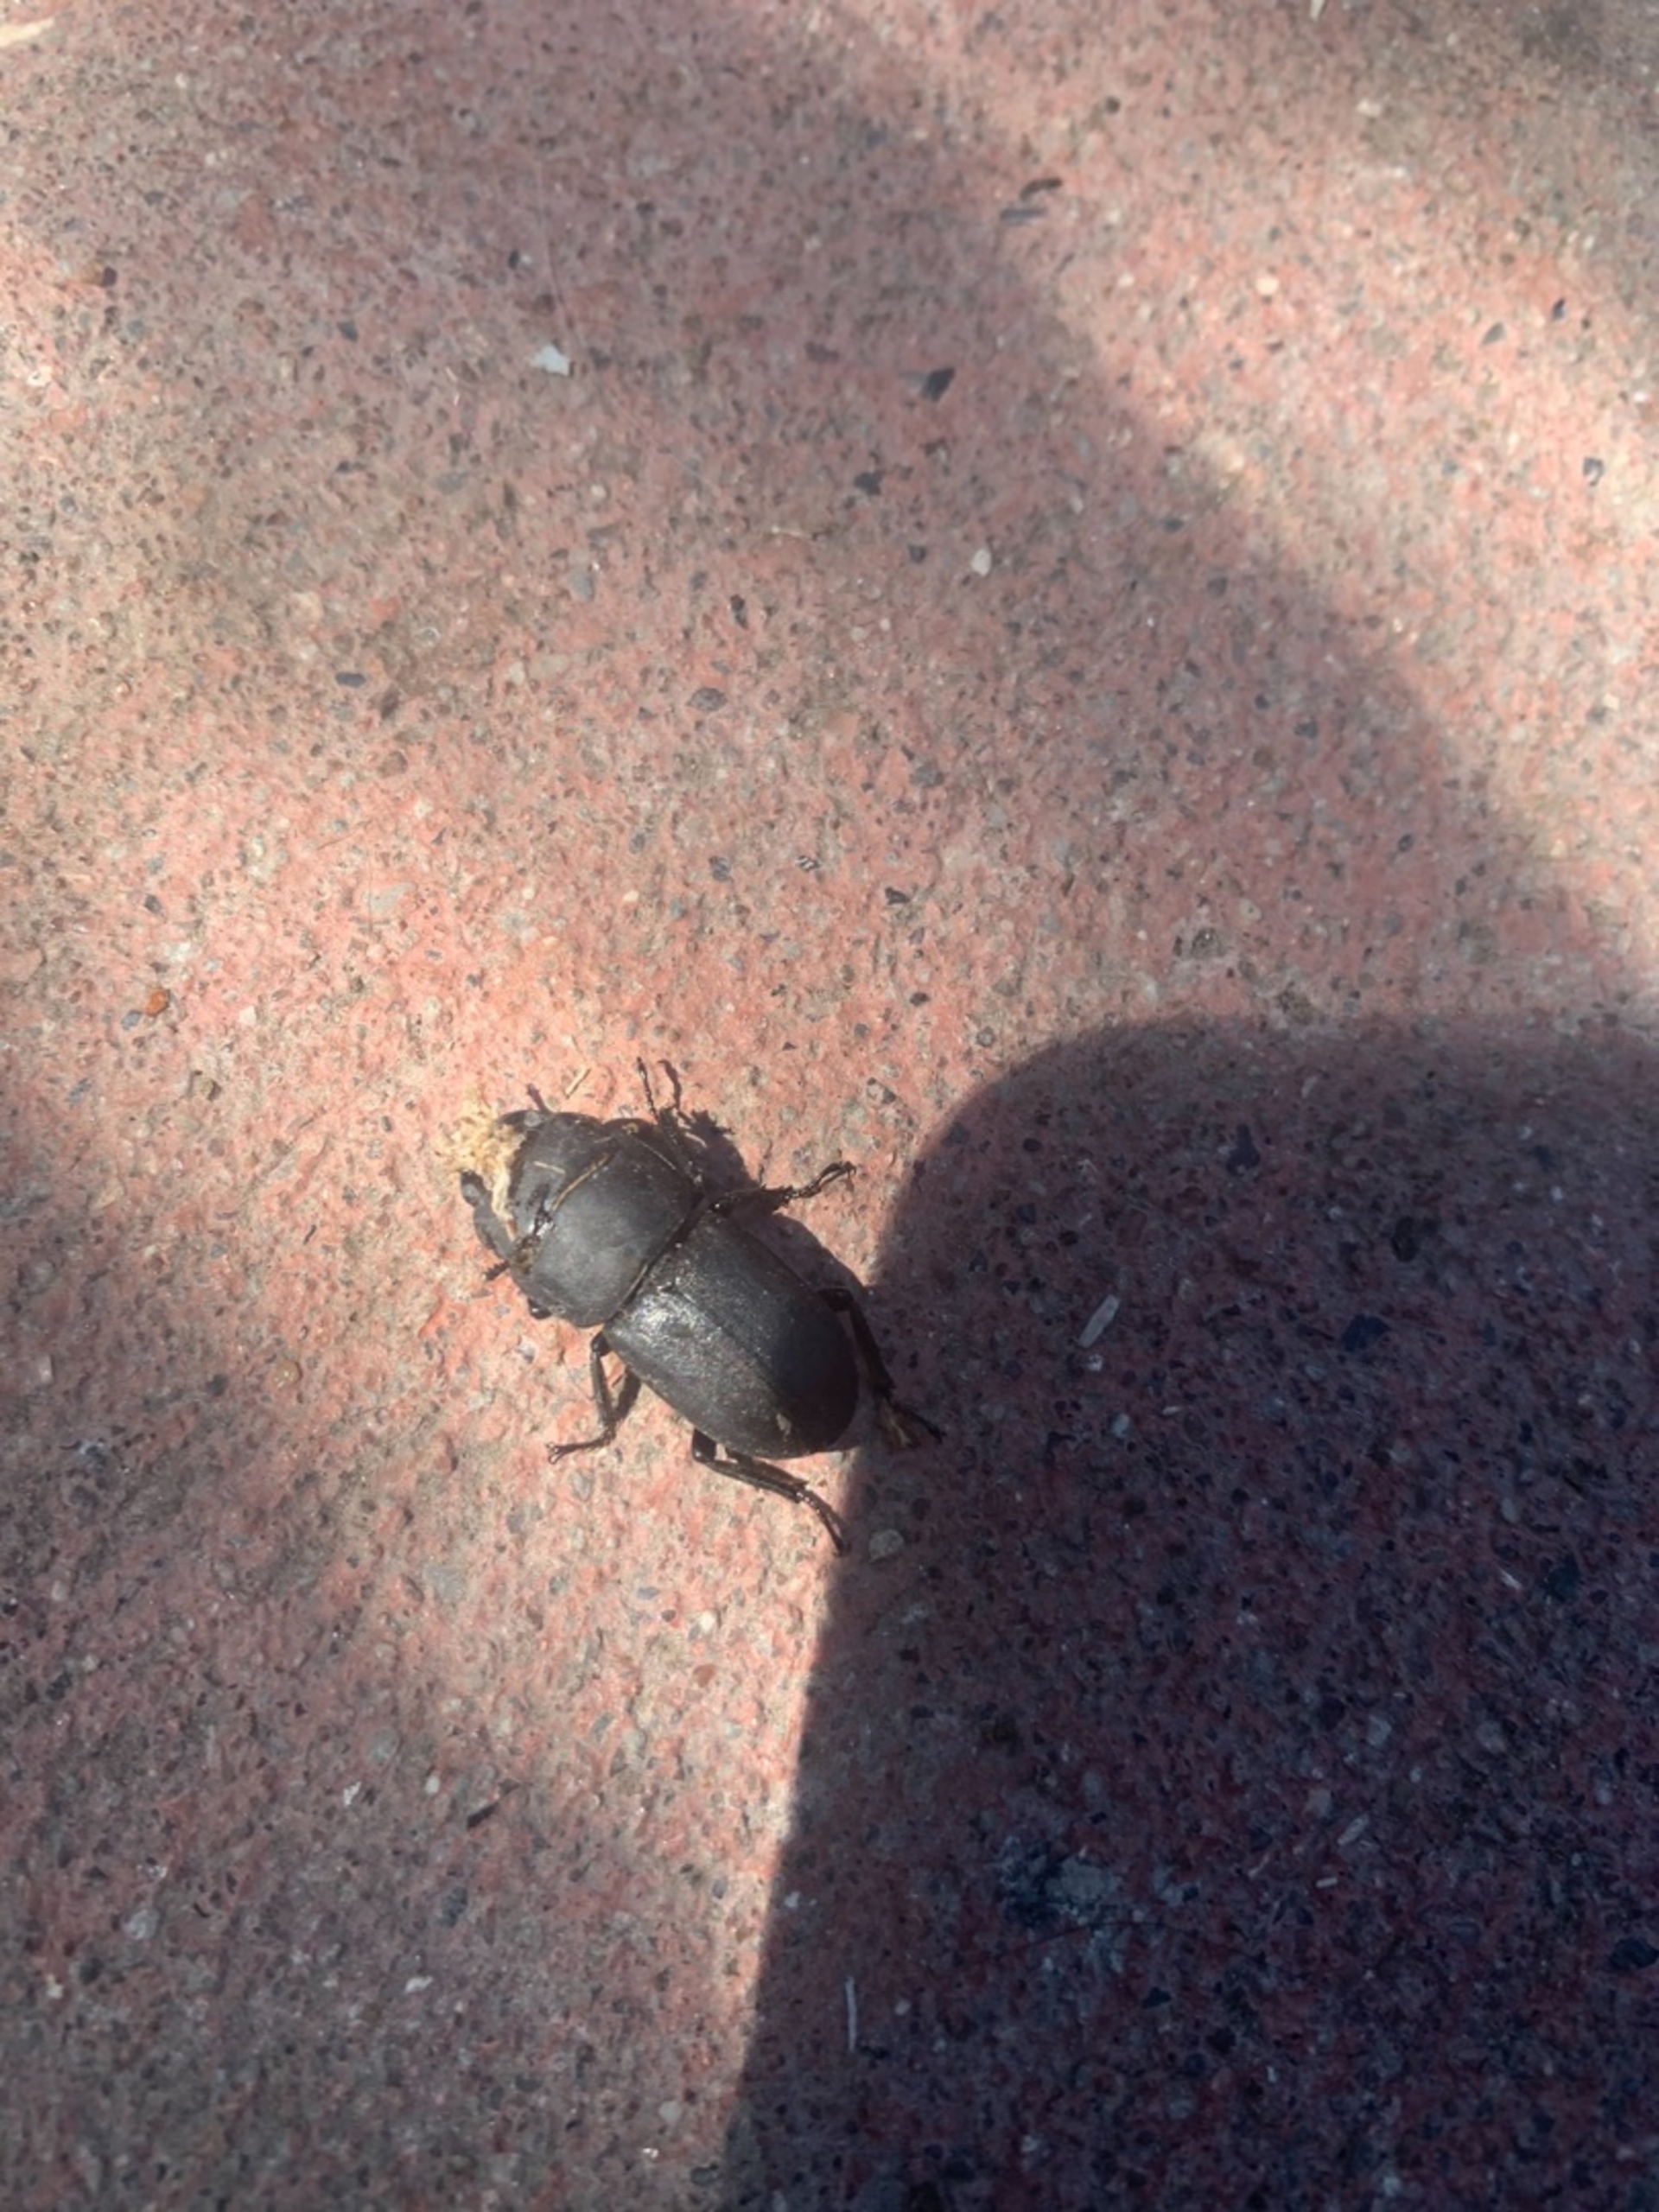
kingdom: Animalia
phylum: Arthropoda
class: Insecta
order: Coleoptera
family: Lucanidae
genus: Dorcus
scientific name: Dorcus parallelipipedus
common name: Bøghjort
